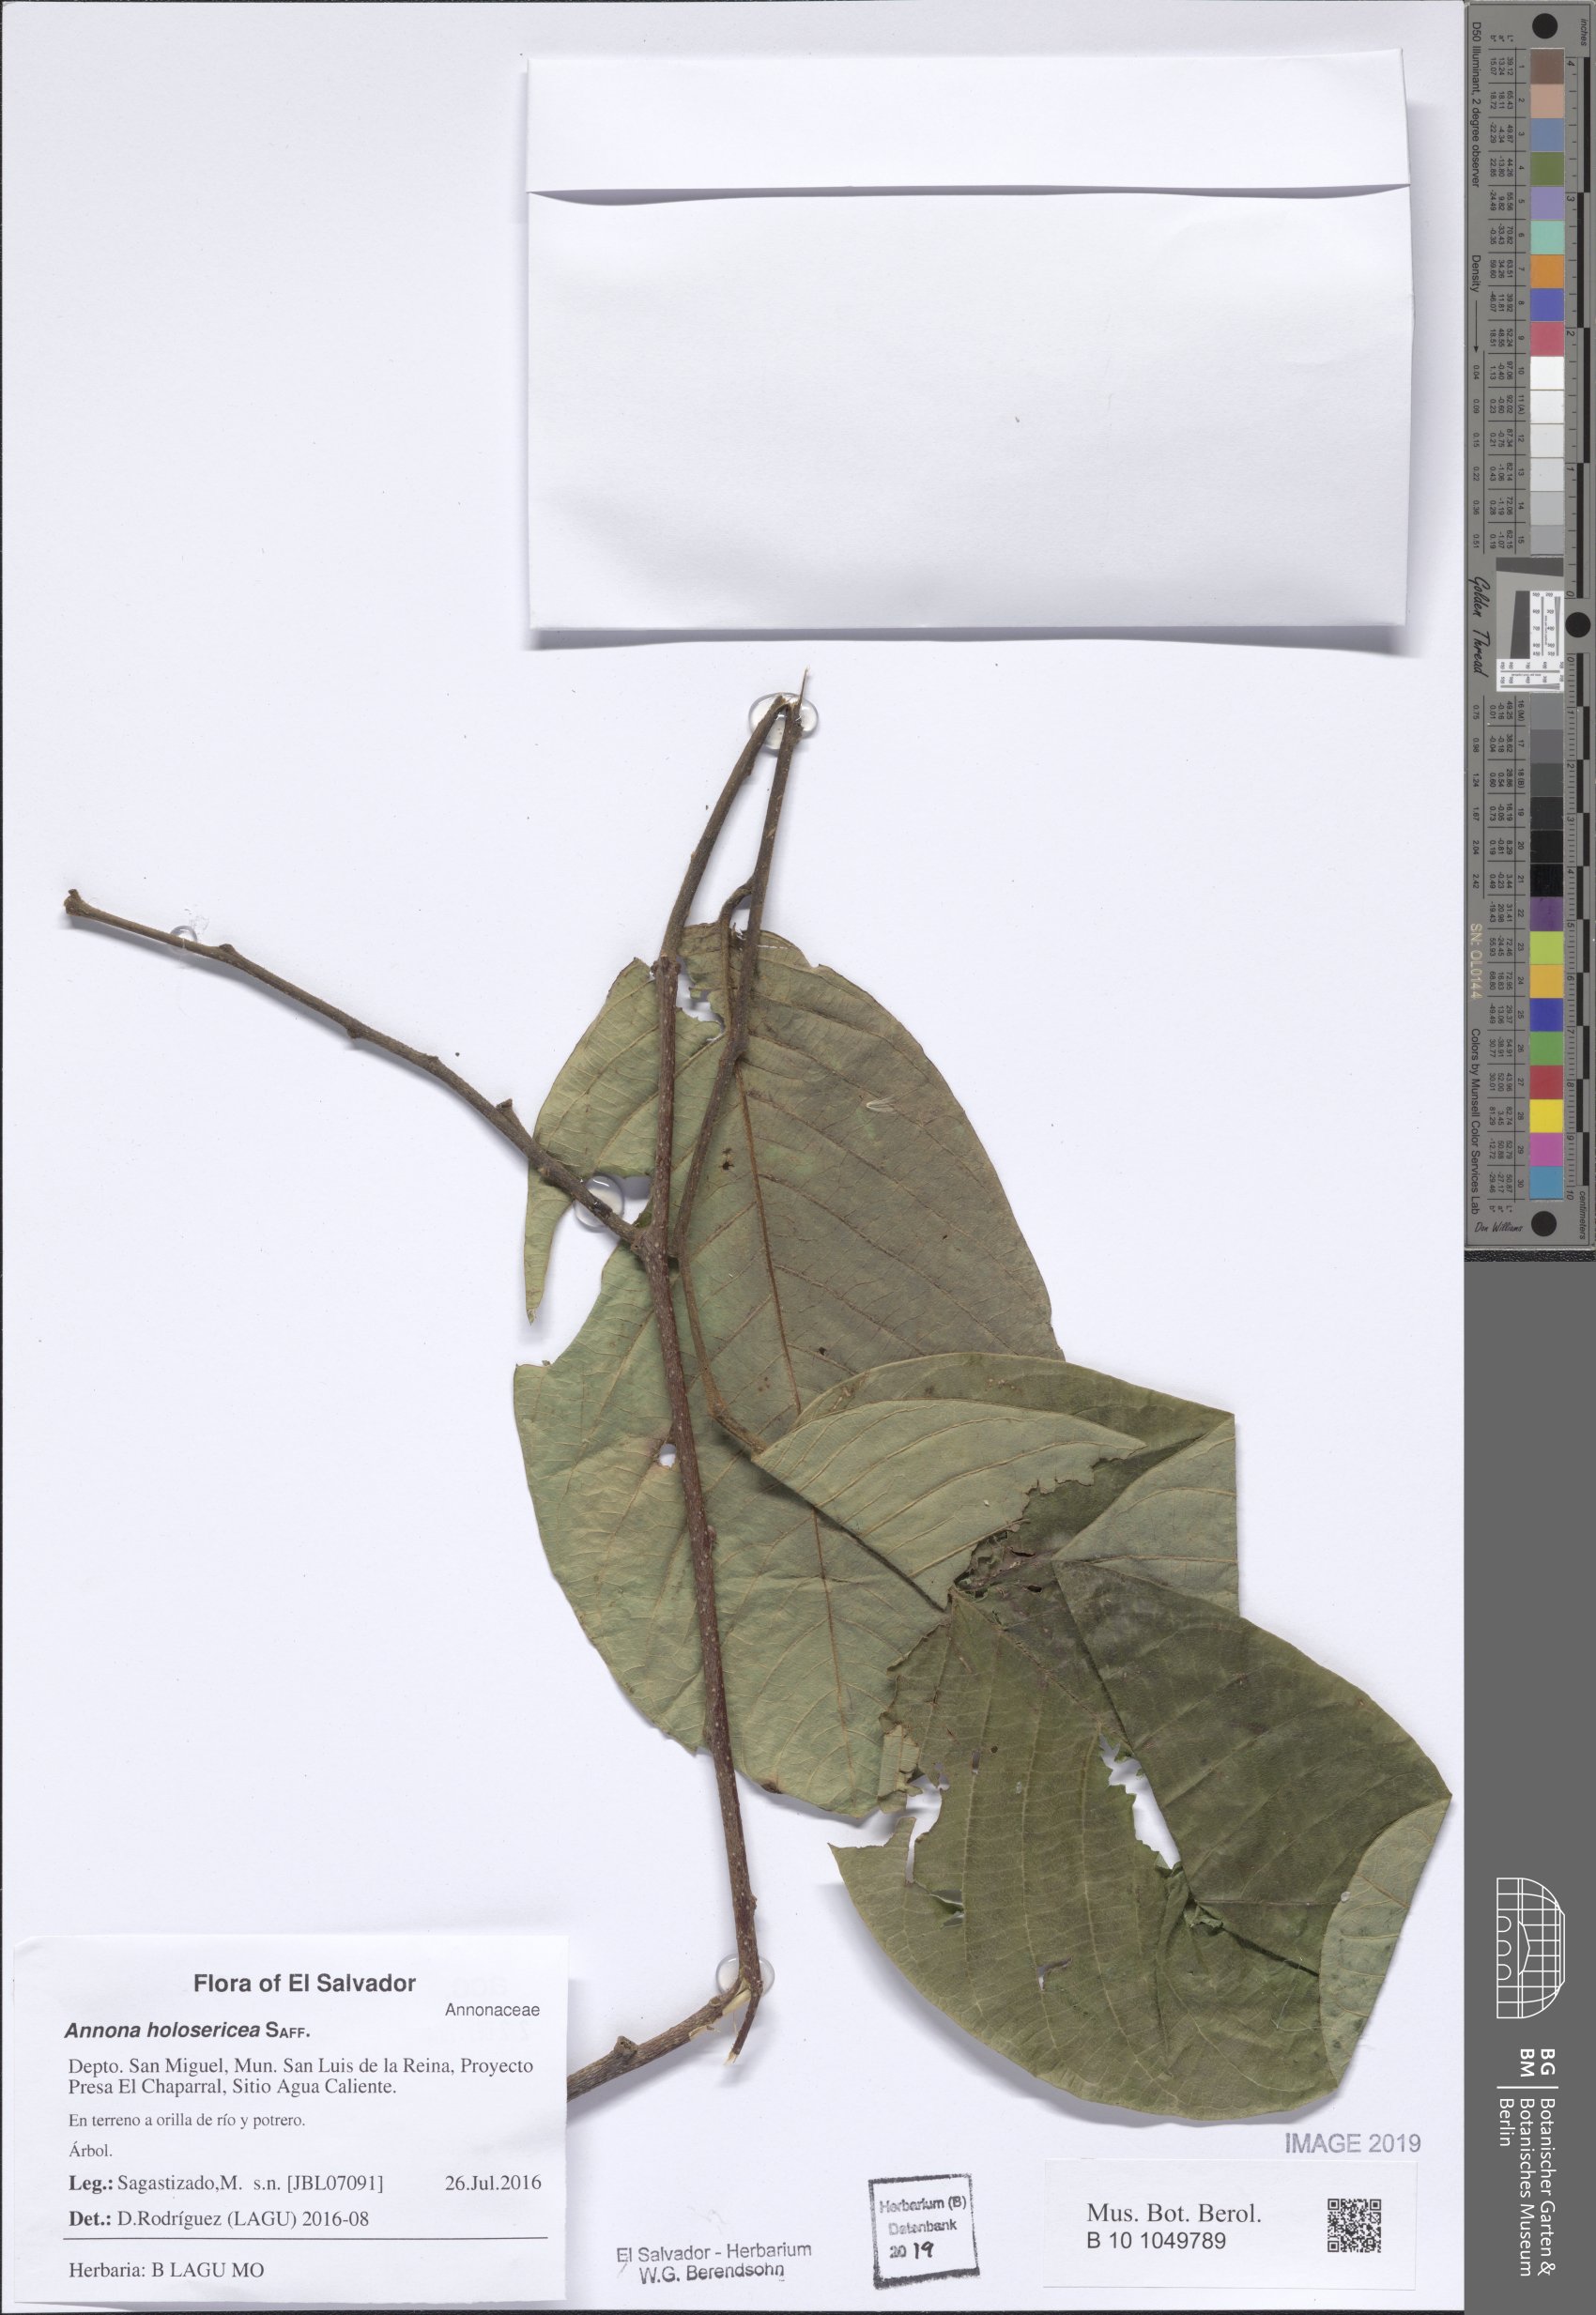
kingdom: Plantae
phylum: Tracheophyta
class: Magnoliopsida
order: Magnoliales
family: Annonaceae
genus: Annona
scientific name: Annona holosericea
